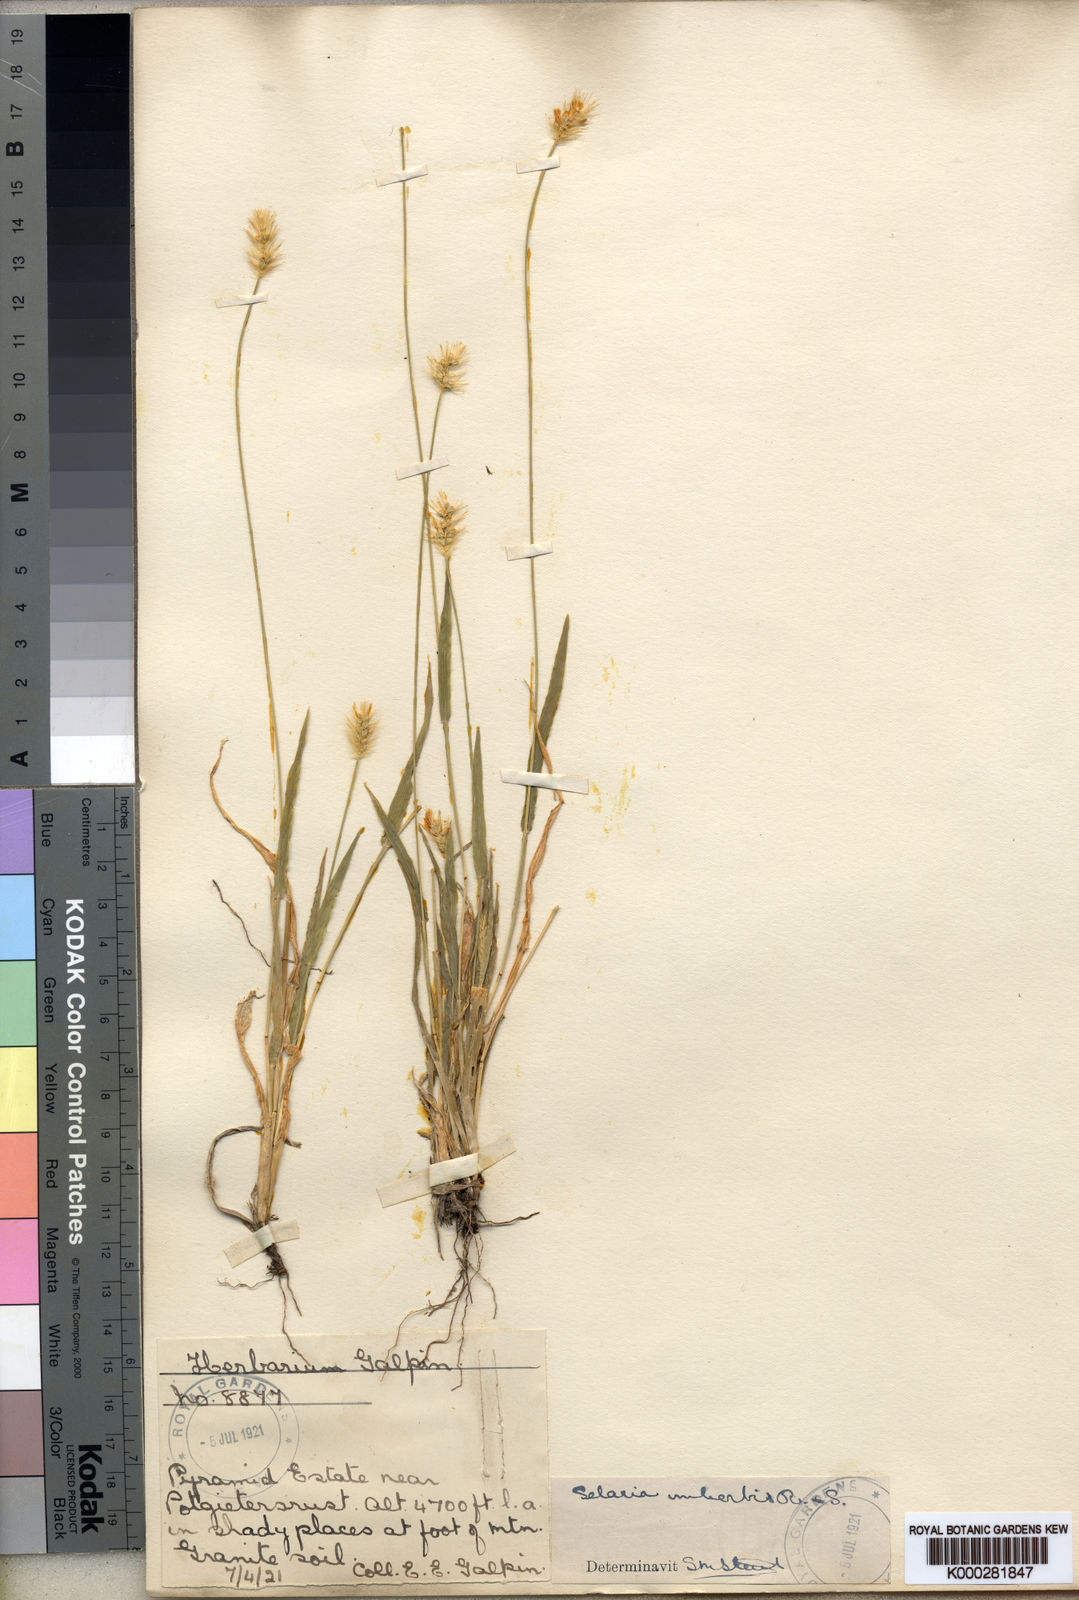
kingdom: Plantae
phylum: Tracheophyta
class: Liliopsida
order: Poales
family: Poaceae
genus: Setaria
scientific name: Setaria pumila
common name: Yellow bristle-grass
